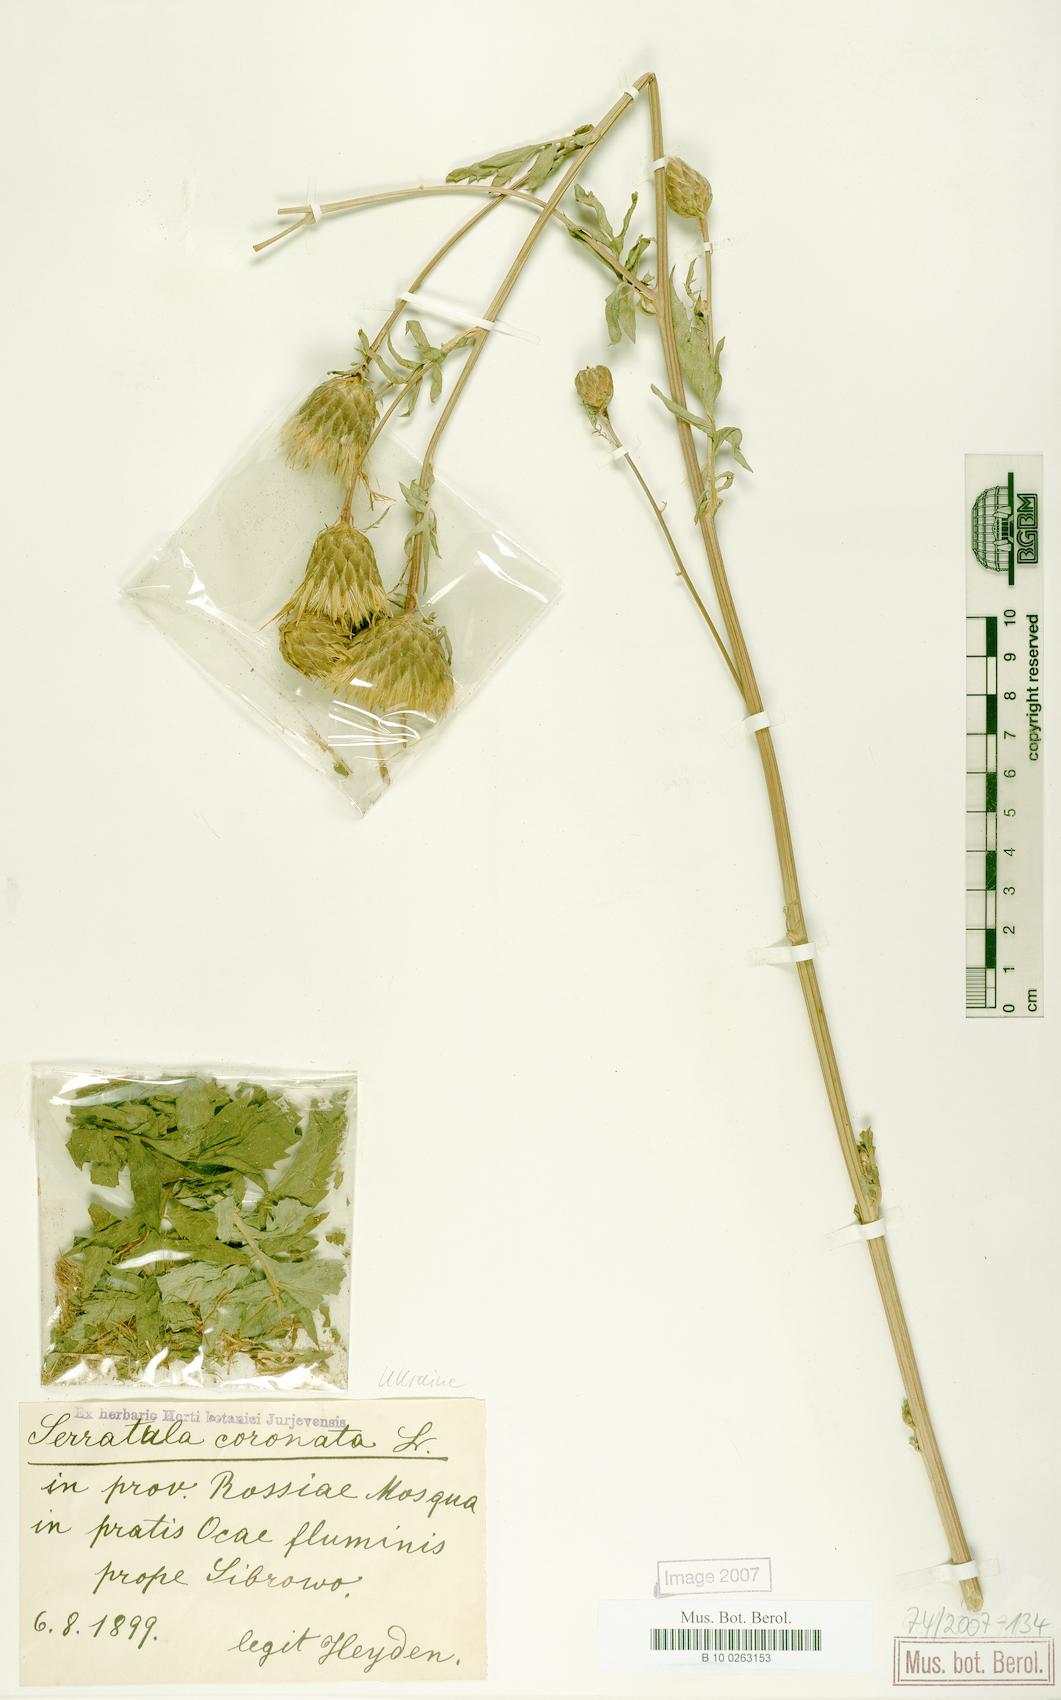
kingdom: Plantae
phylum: Tracheophyta
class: Magnoliopsida
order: Asterales
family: Asteraceae
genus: Serratula
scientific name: Serratula coronata
